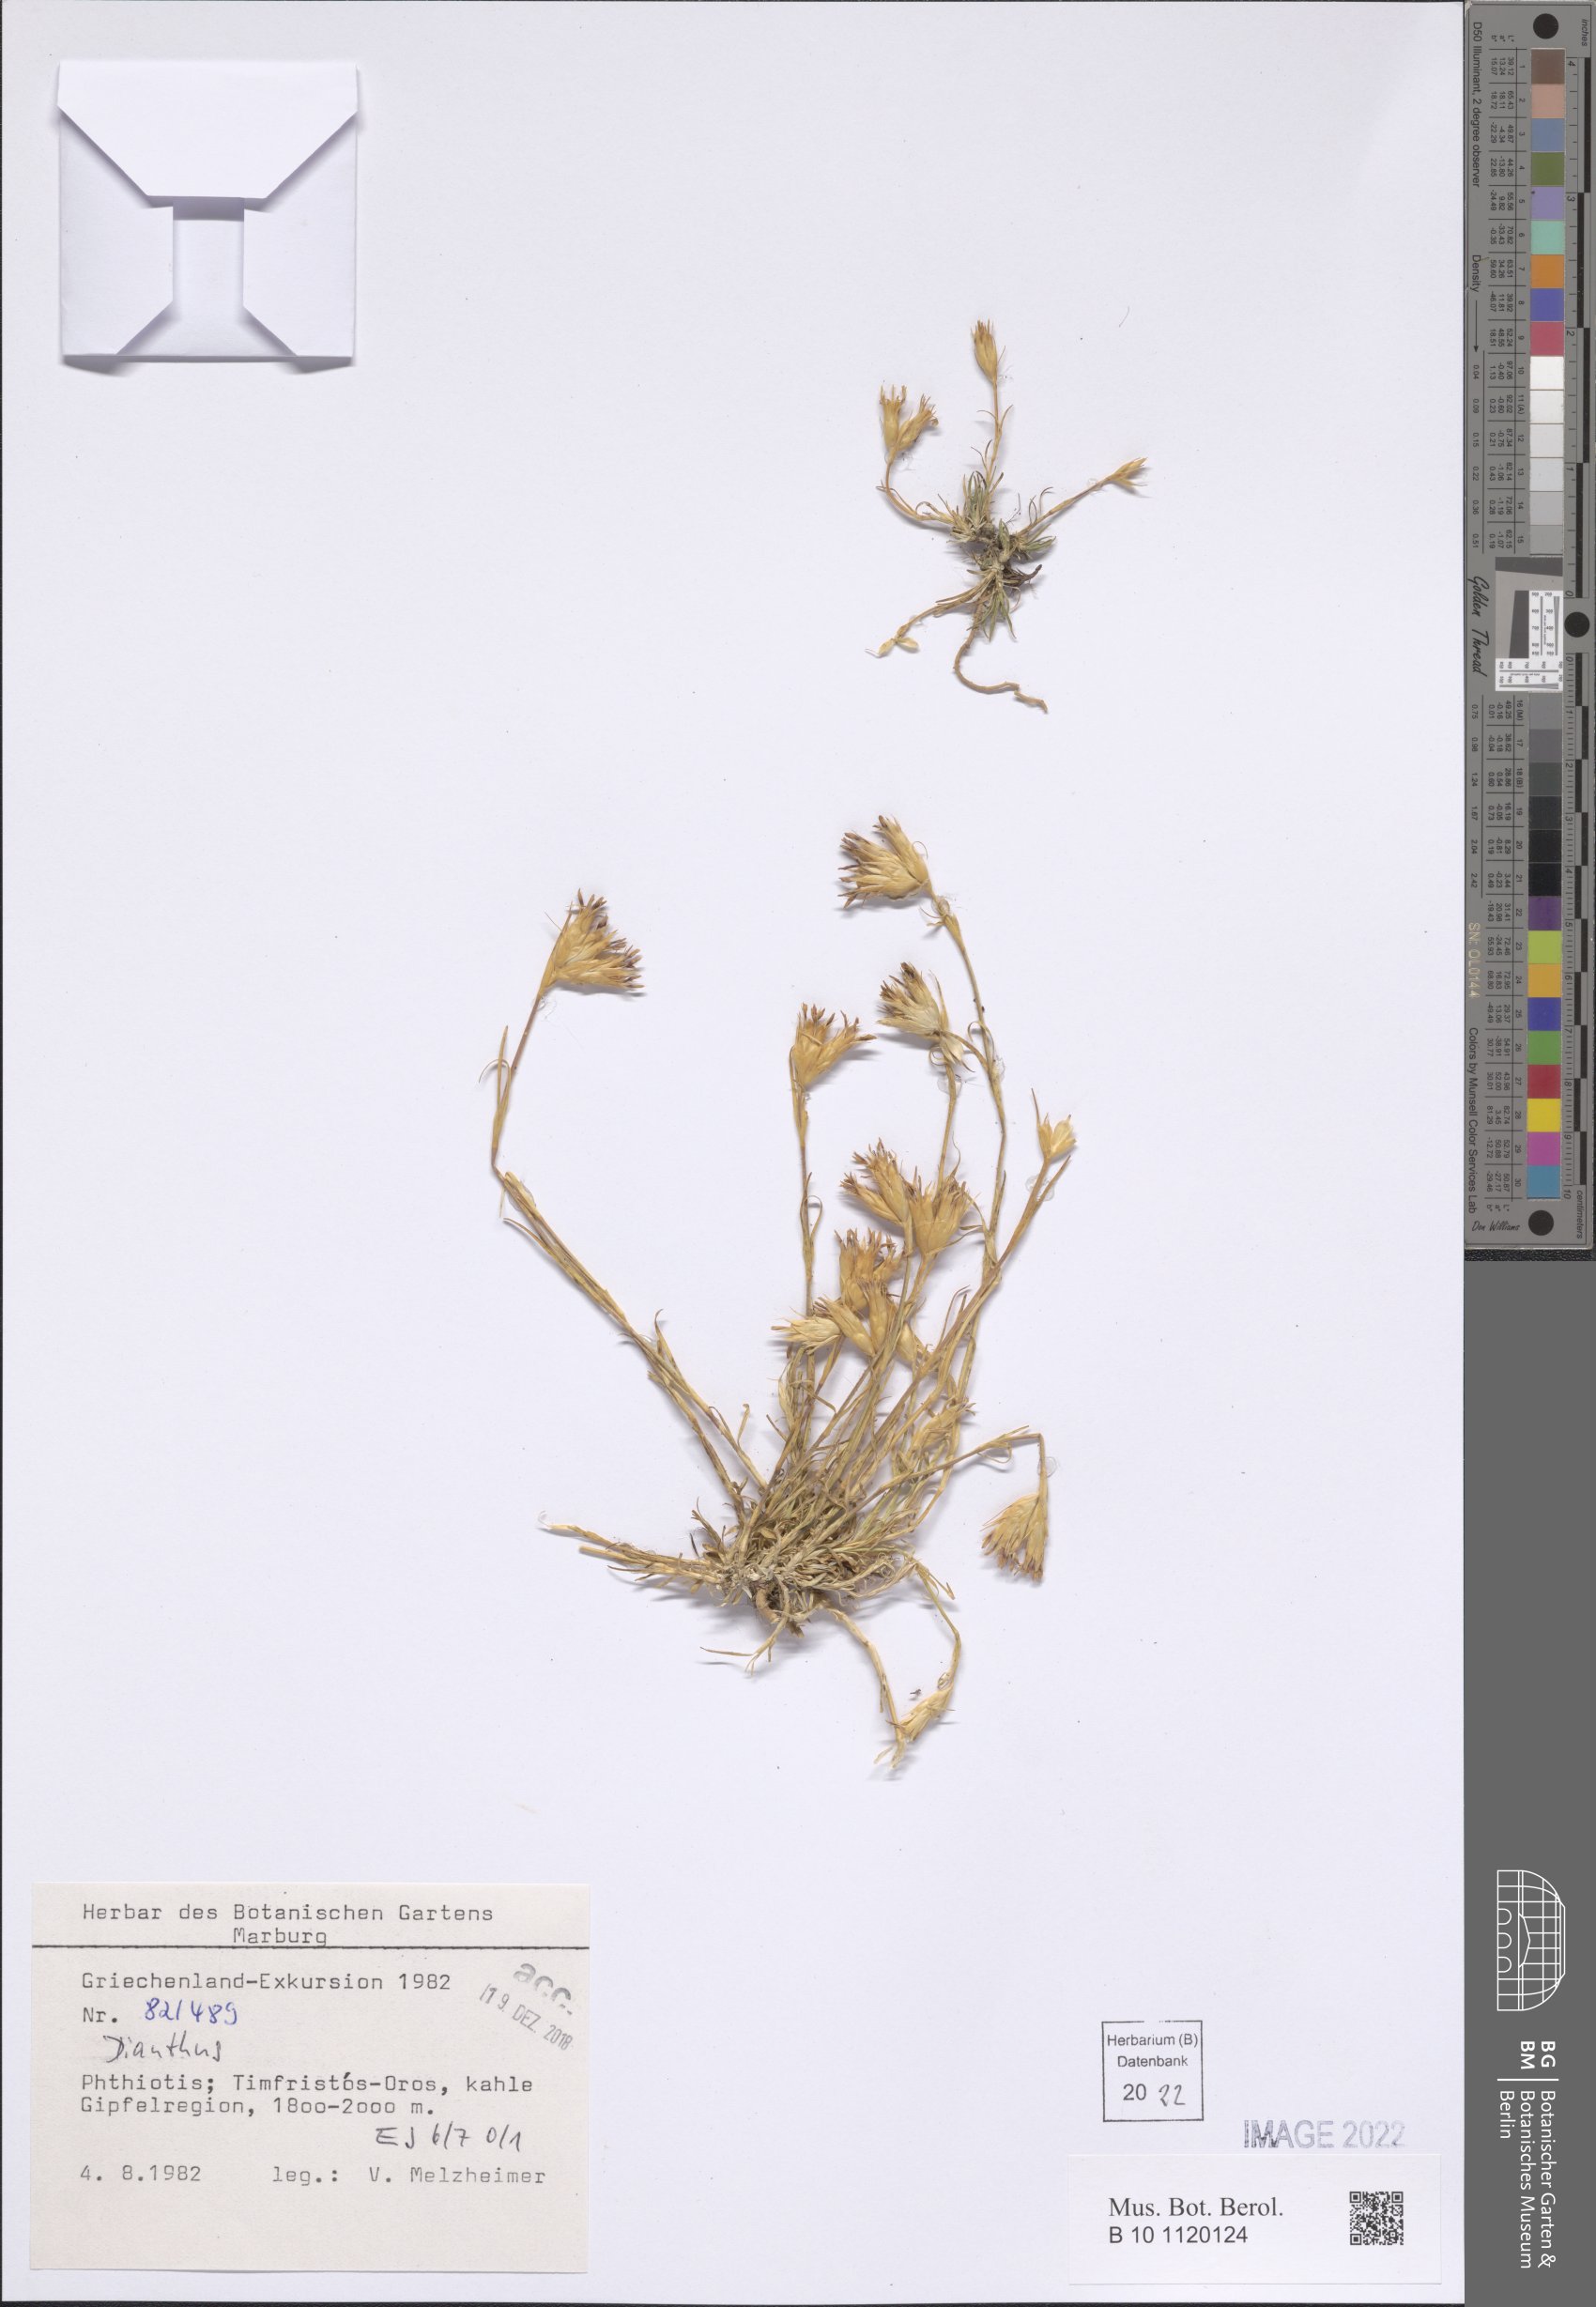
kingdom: Plantae
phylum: Tracheophyta
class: Magnoliopsida
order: Caryophyllales
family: Caryophyllaceae
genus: Dianthus
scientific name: Dianthus
